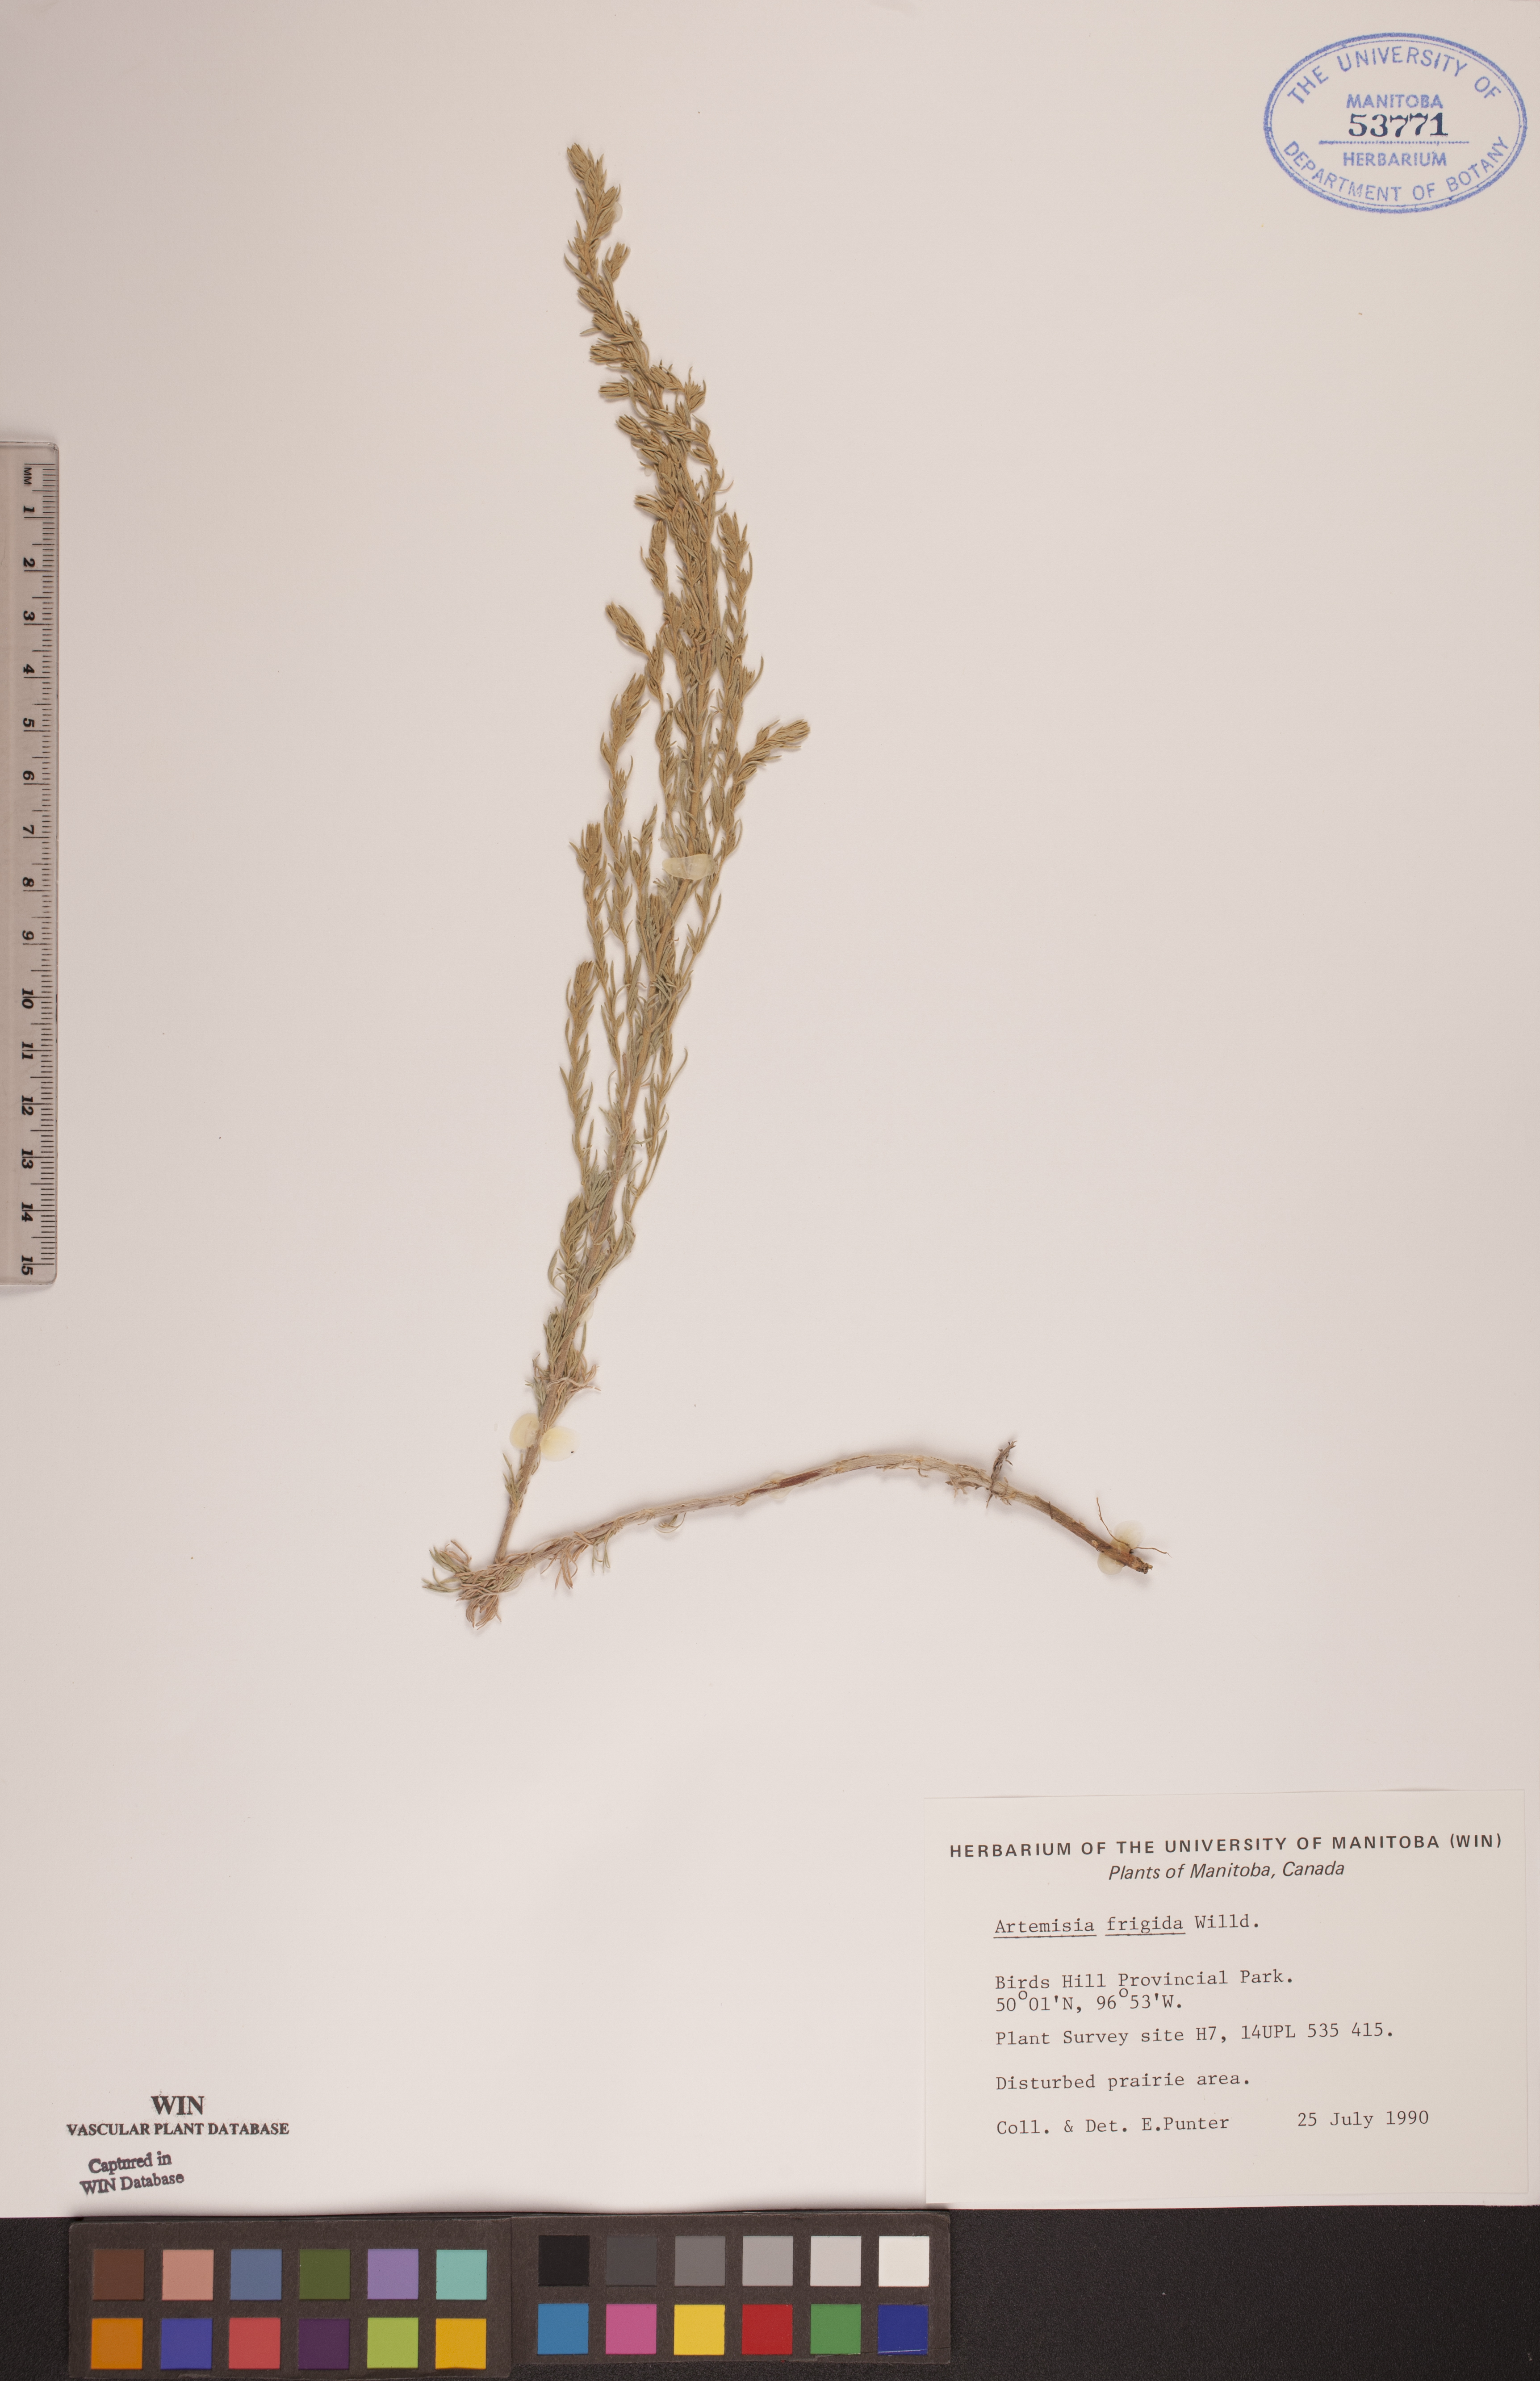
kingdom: Plantae
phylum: Tracheophyta
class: Magnoliopsida
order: Asterales
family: Asteraceae
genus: Artemisia
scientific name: Artemisia frigida
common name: Prairie sagewort
